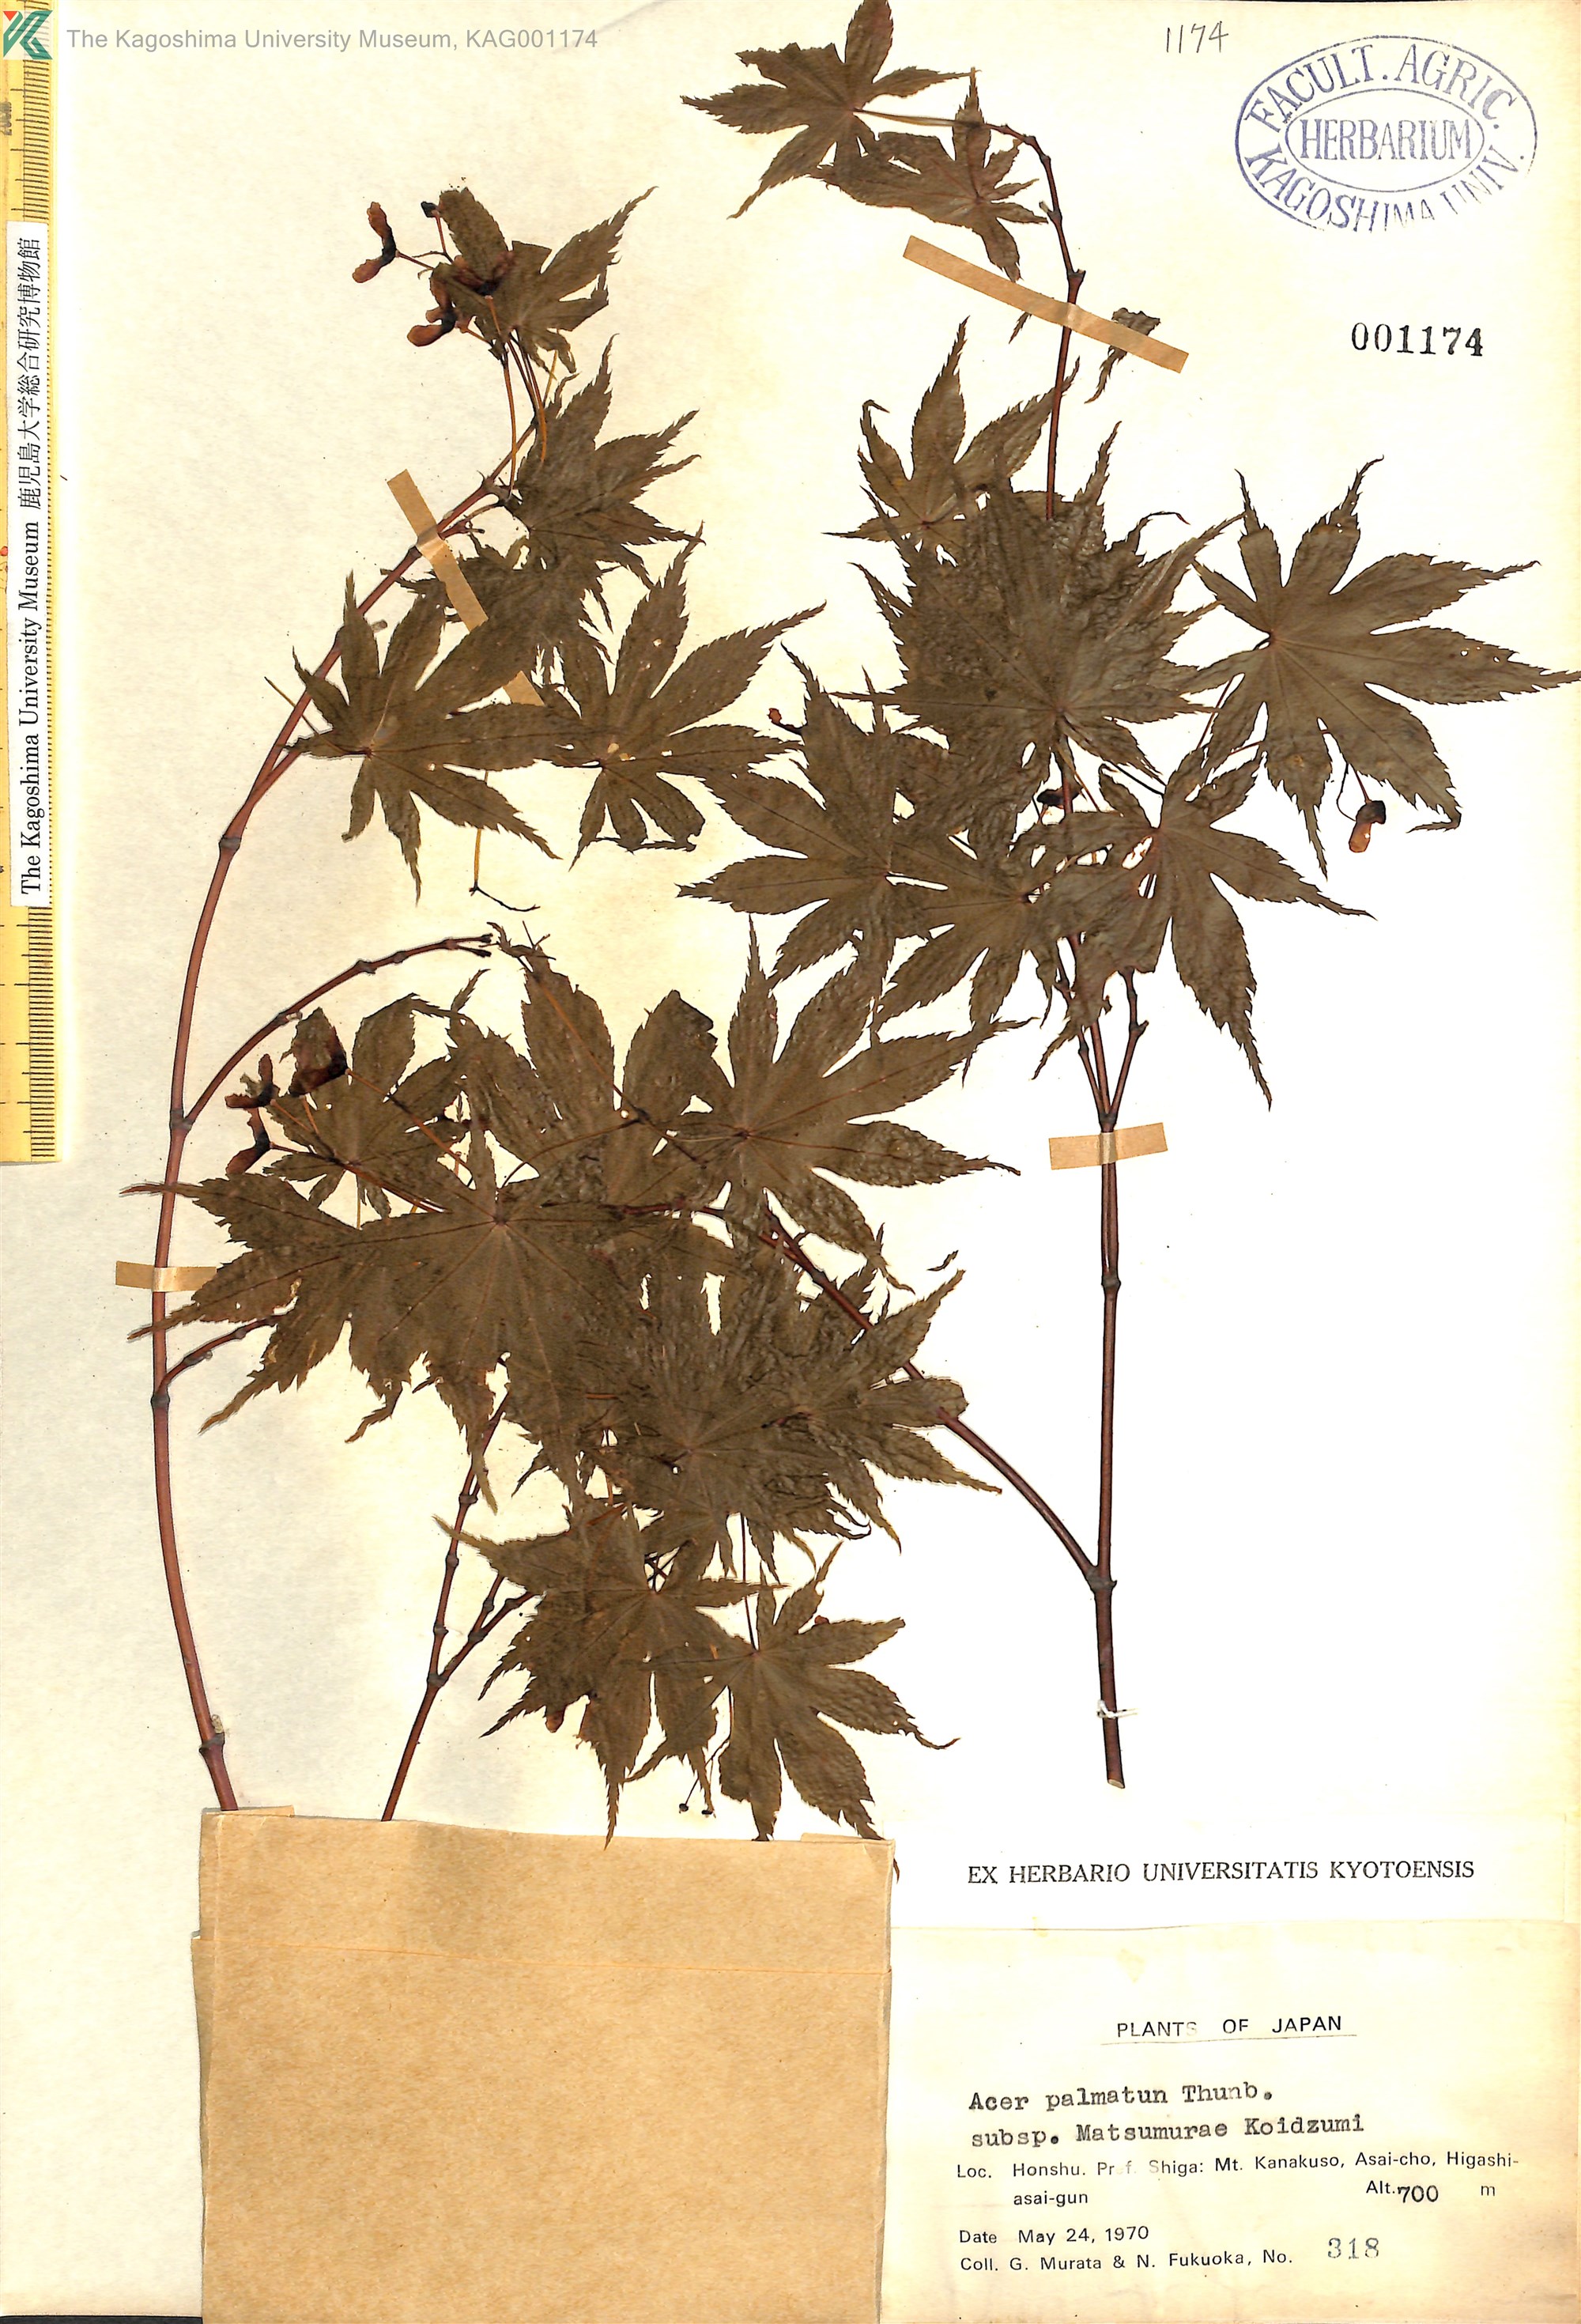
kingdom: Plantae
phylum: Tracheophyta
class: Magnoliopsida
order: Sapindales
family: Sapindaceae
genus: Acer
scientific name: Acer palmatum
